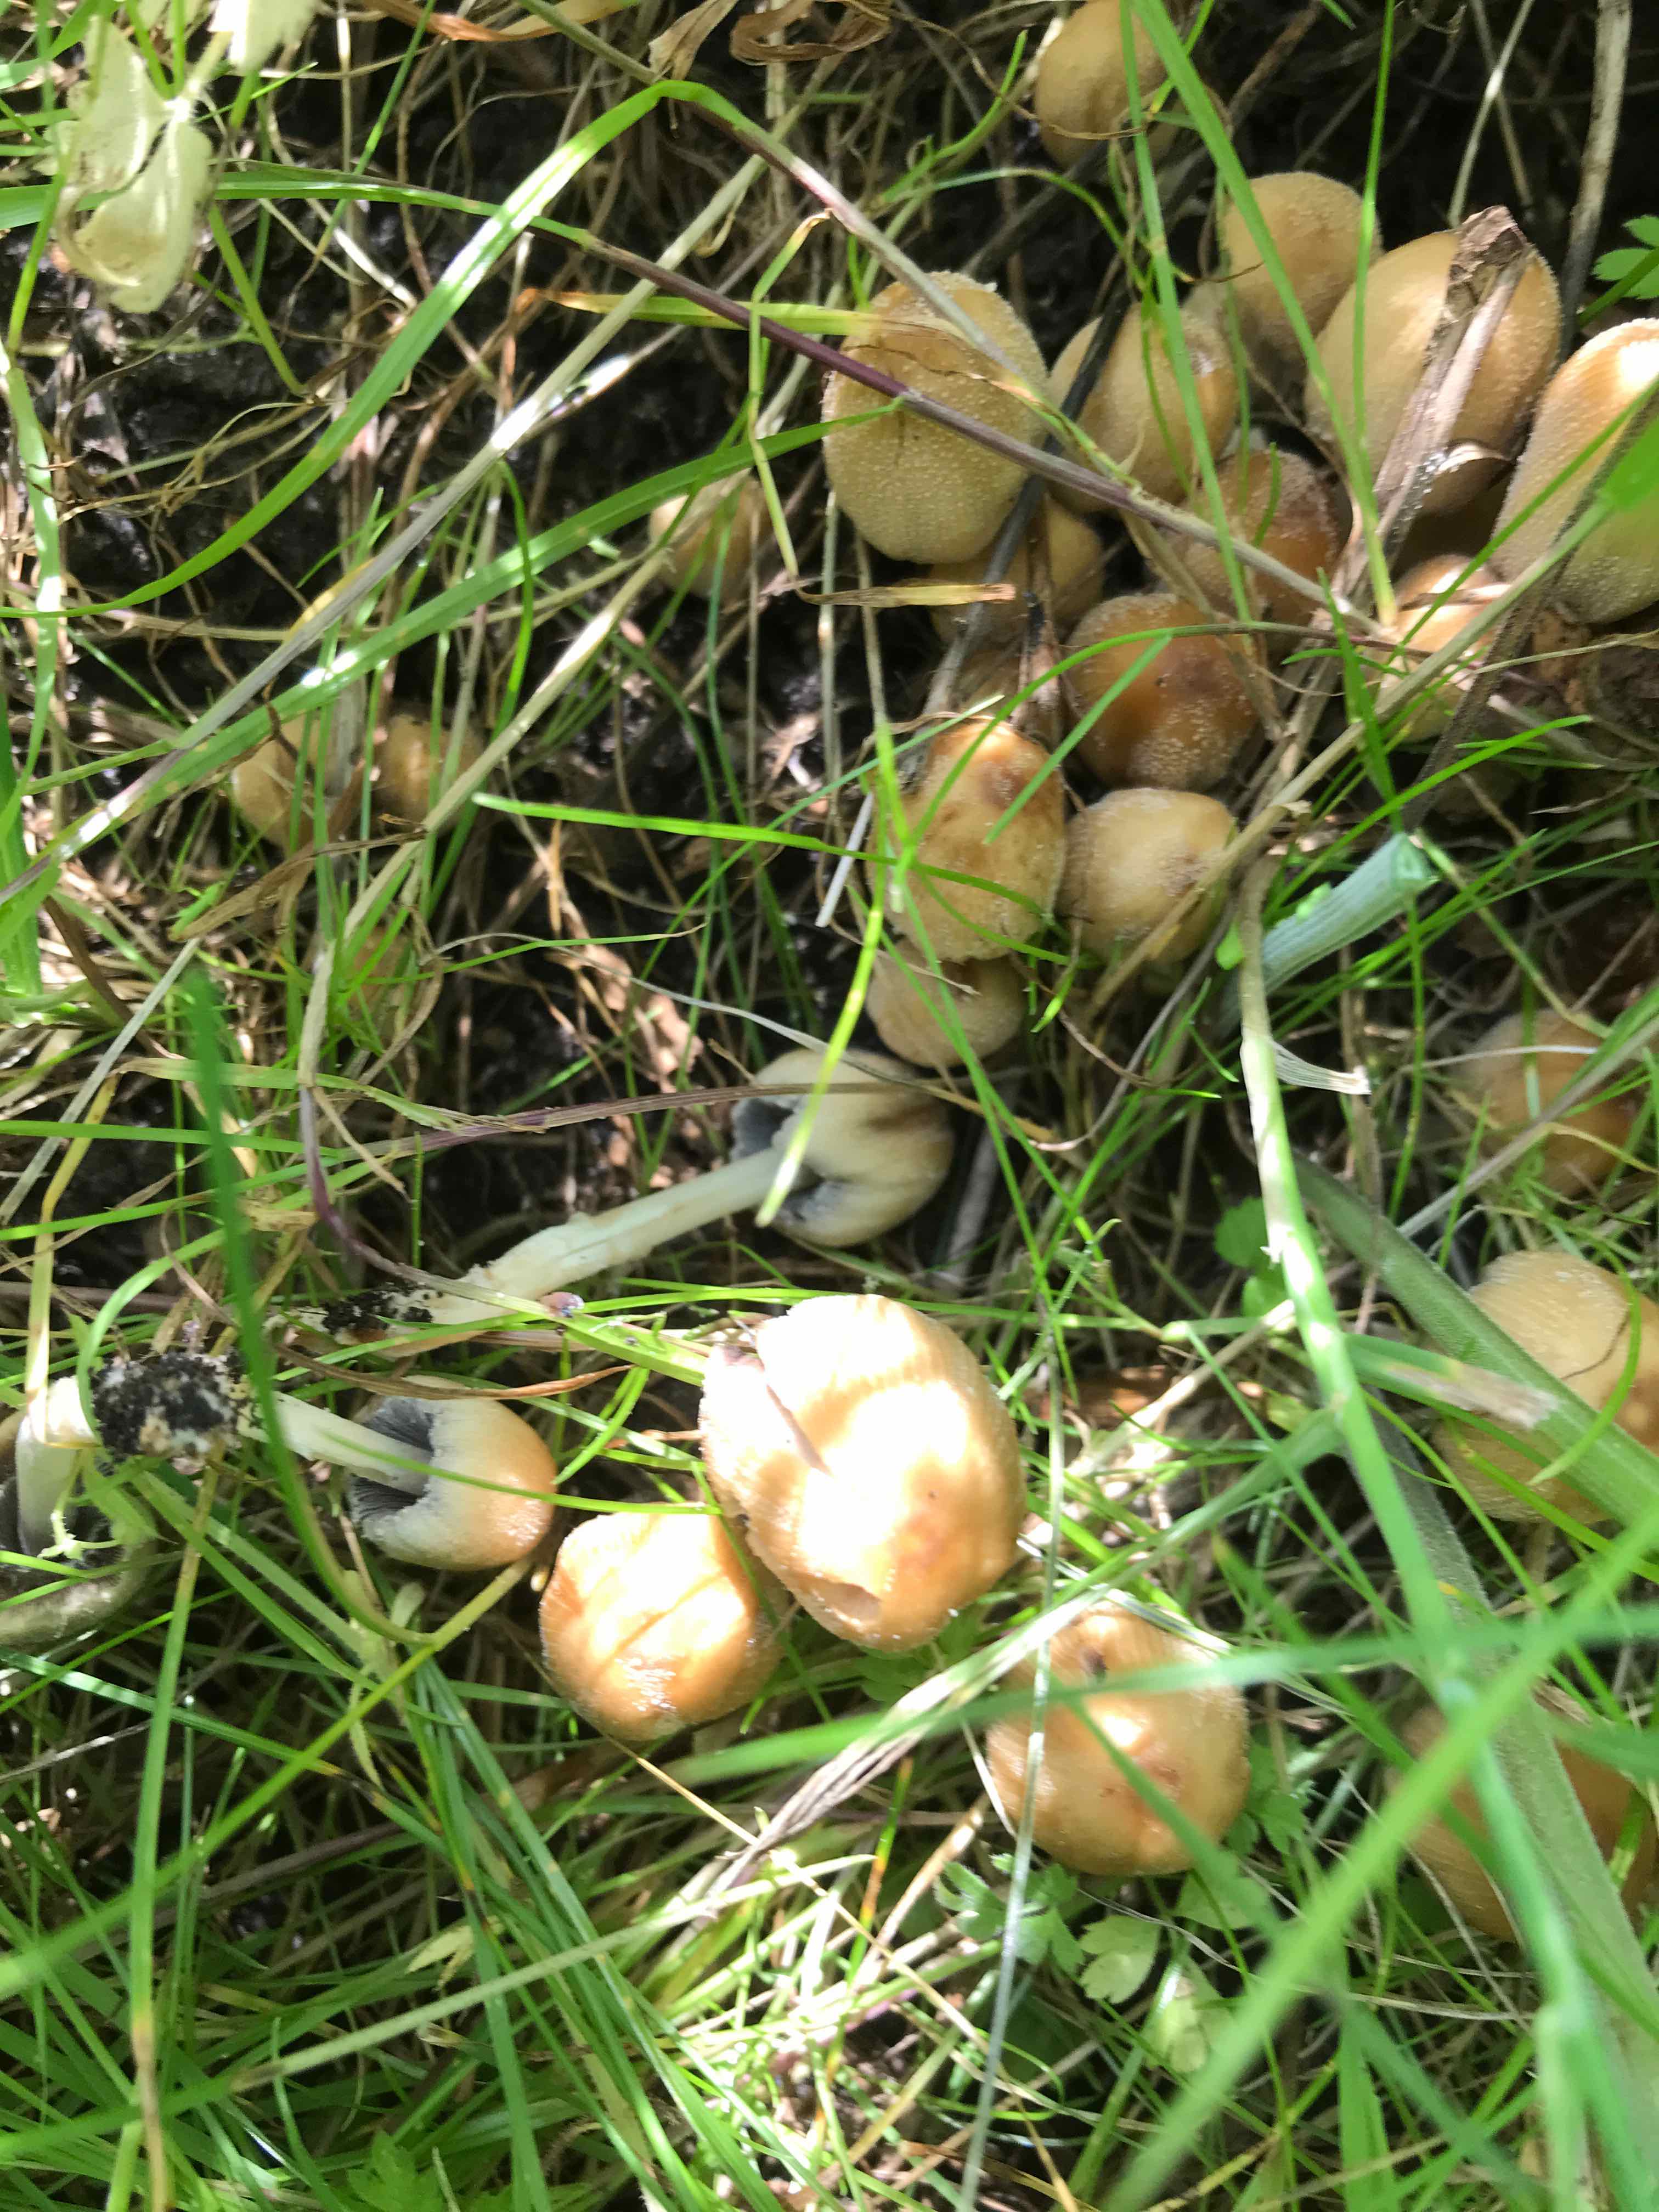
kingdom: Fungi
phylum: Basidiomycota
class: Agaricomycetes
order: Agaricales
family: Psathyrellaceae
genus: Coprinellus
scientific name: Coprinellus micaceus
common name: glimmer-blækhat
